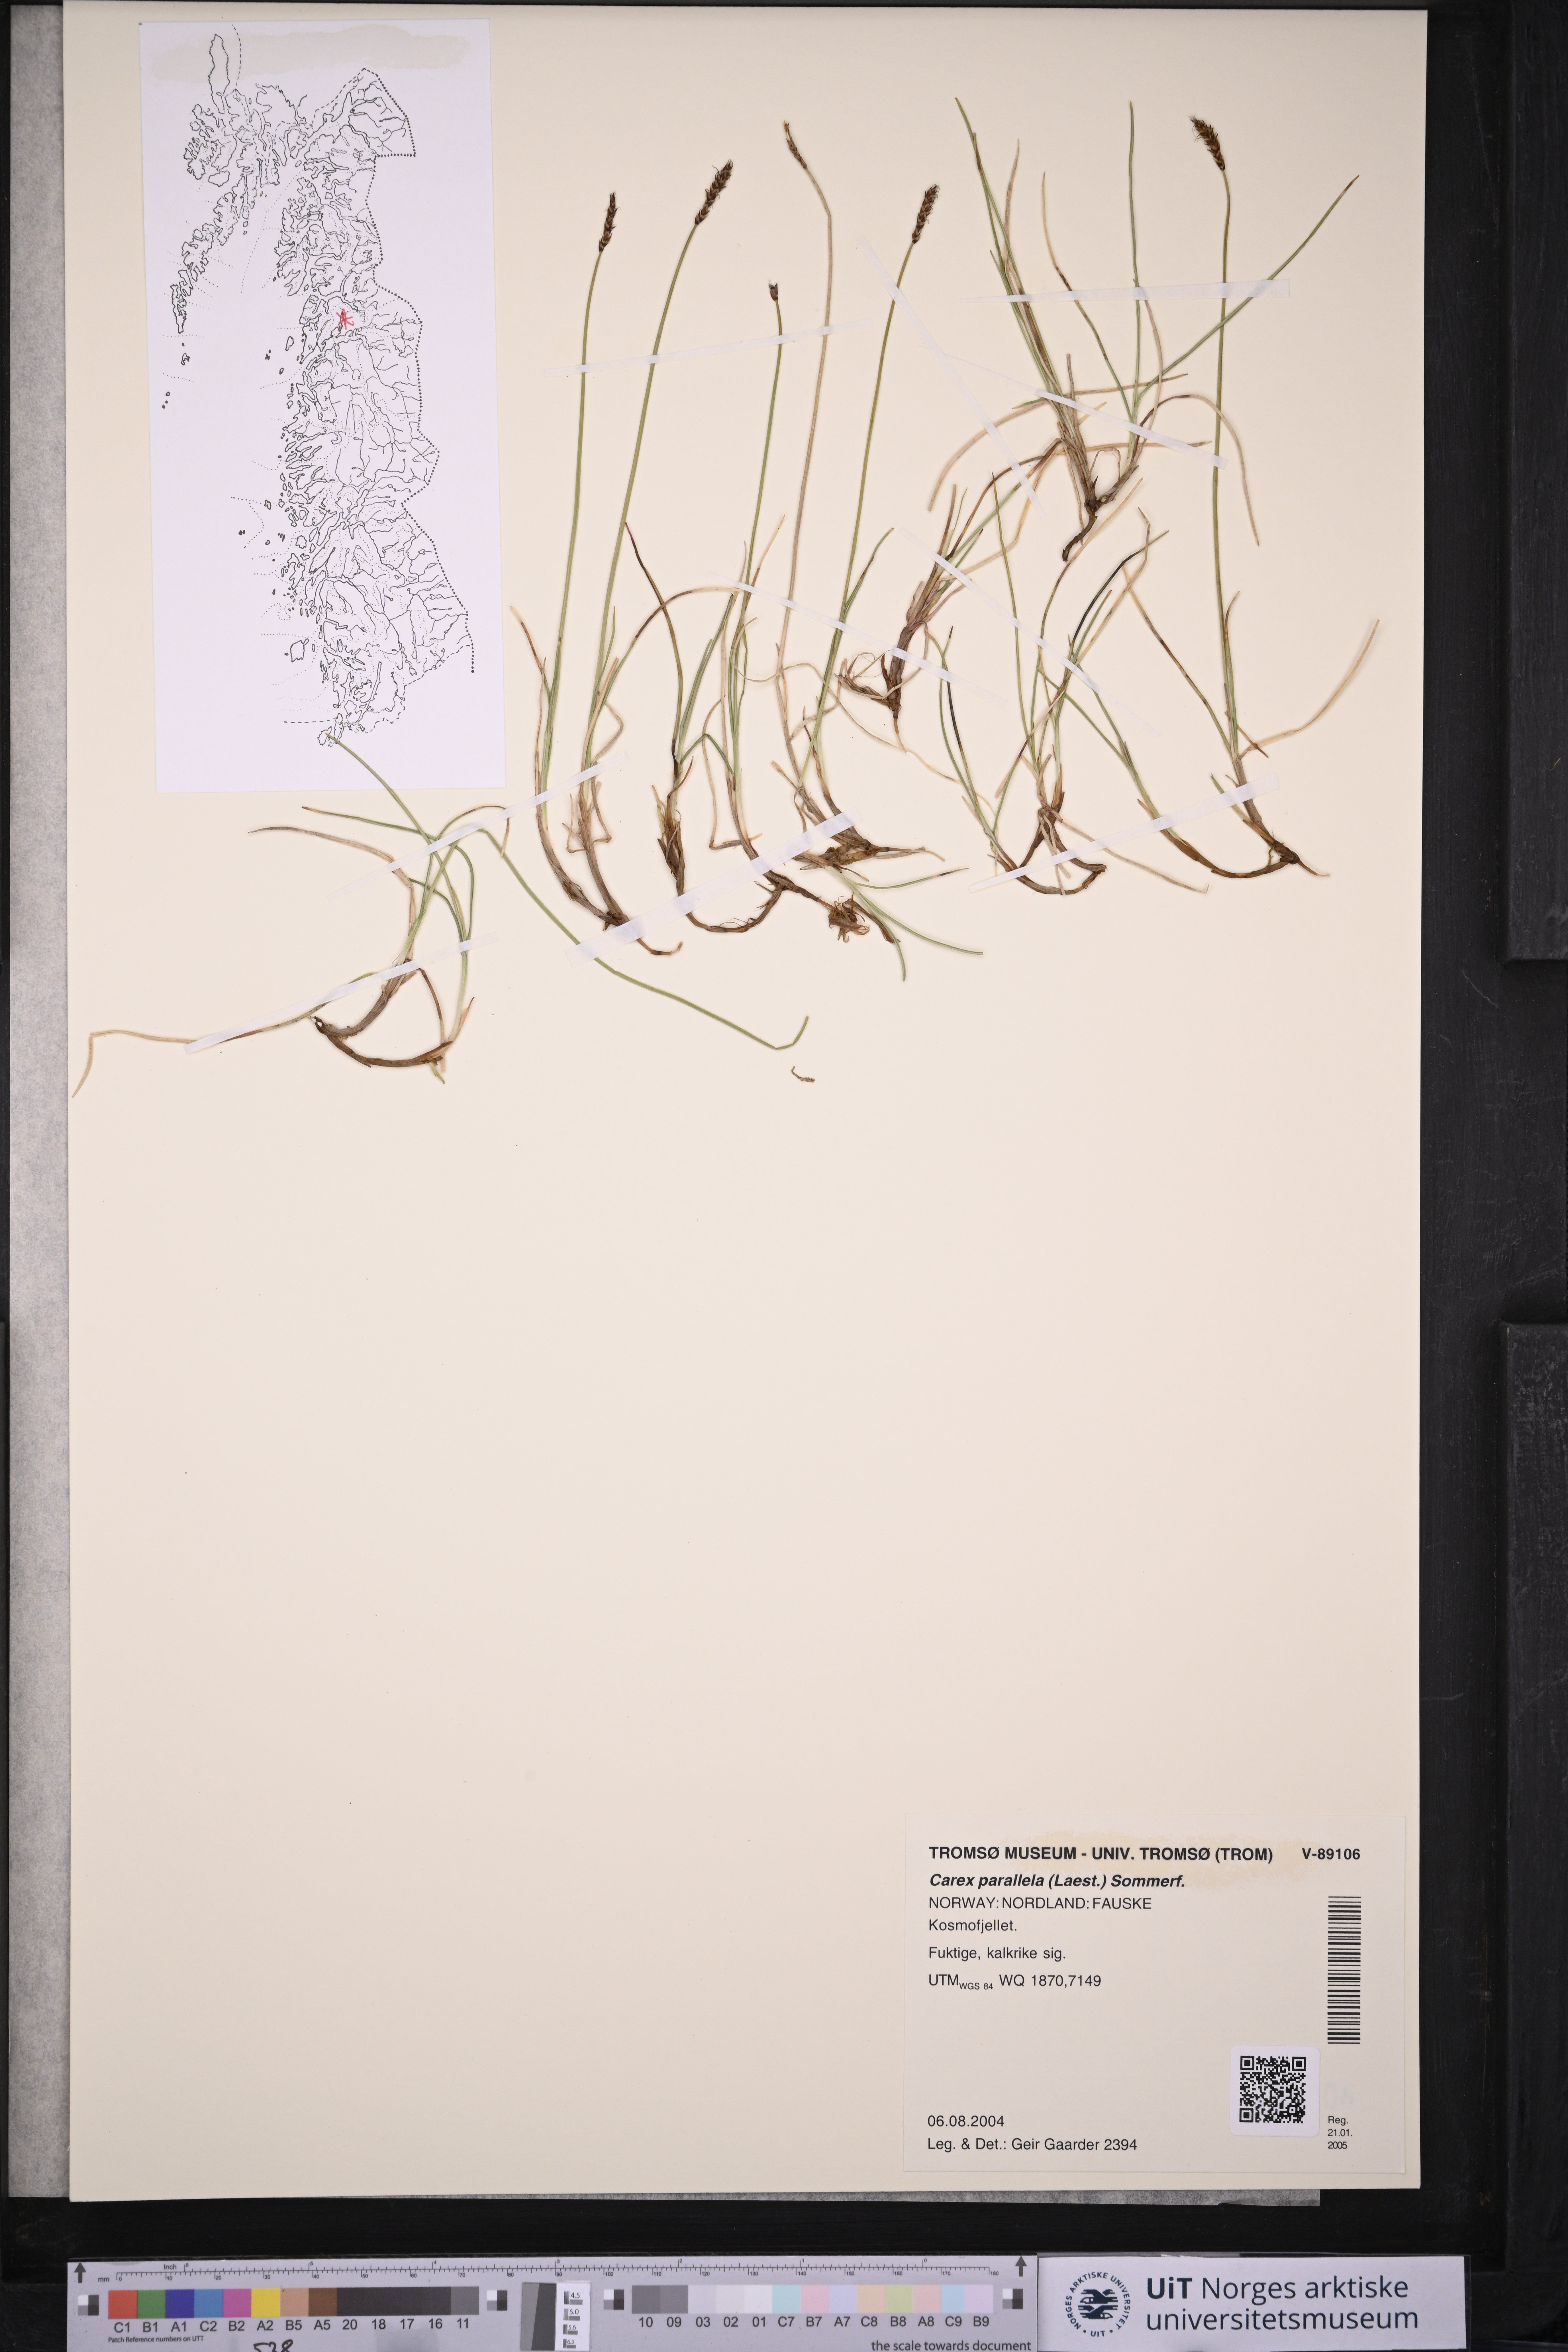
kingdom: Plantae
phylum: Tracheophyta
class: Liliopsida
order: Poales
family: Cyperaceae
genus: Carex
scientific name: Carex parallela
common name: Parallel sedge
